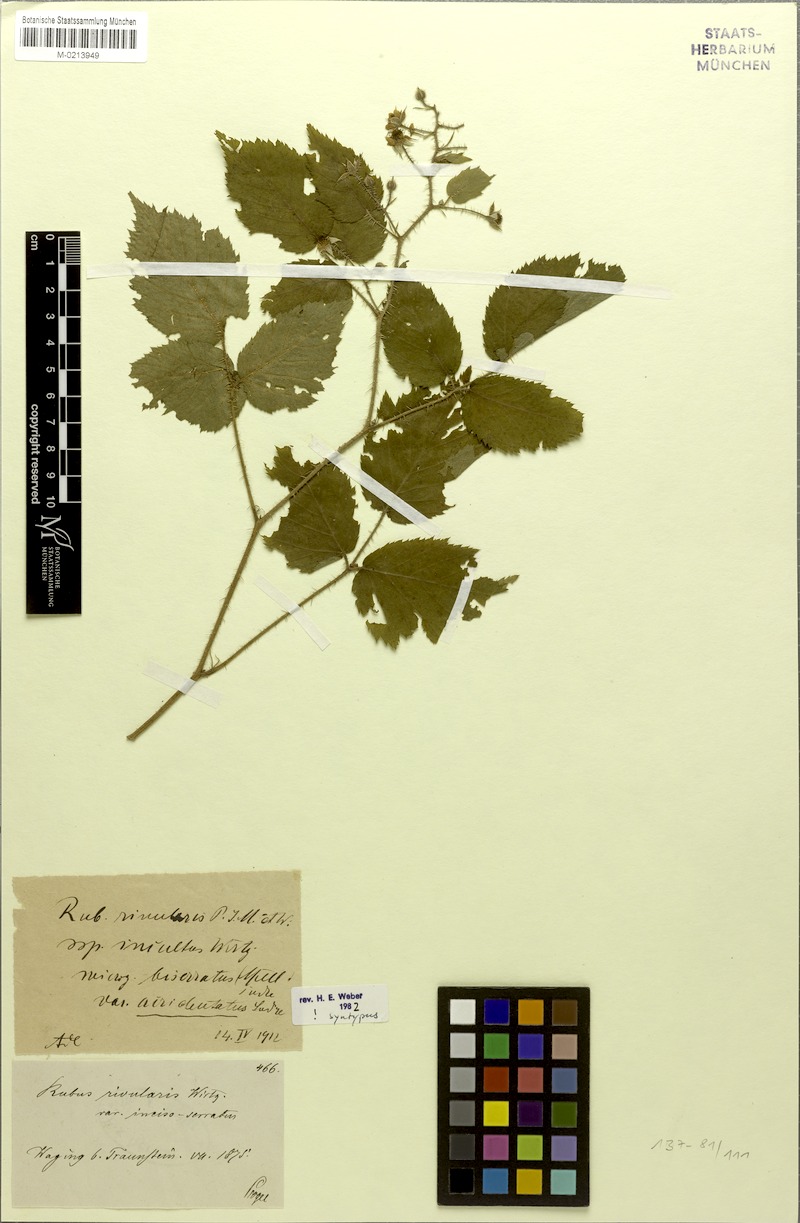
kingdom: Plantae
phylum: Tracheophyta
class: Magnoliopsida
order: Rosales
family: Rosaceae
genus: Rubus
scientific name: Rubus biserratus
